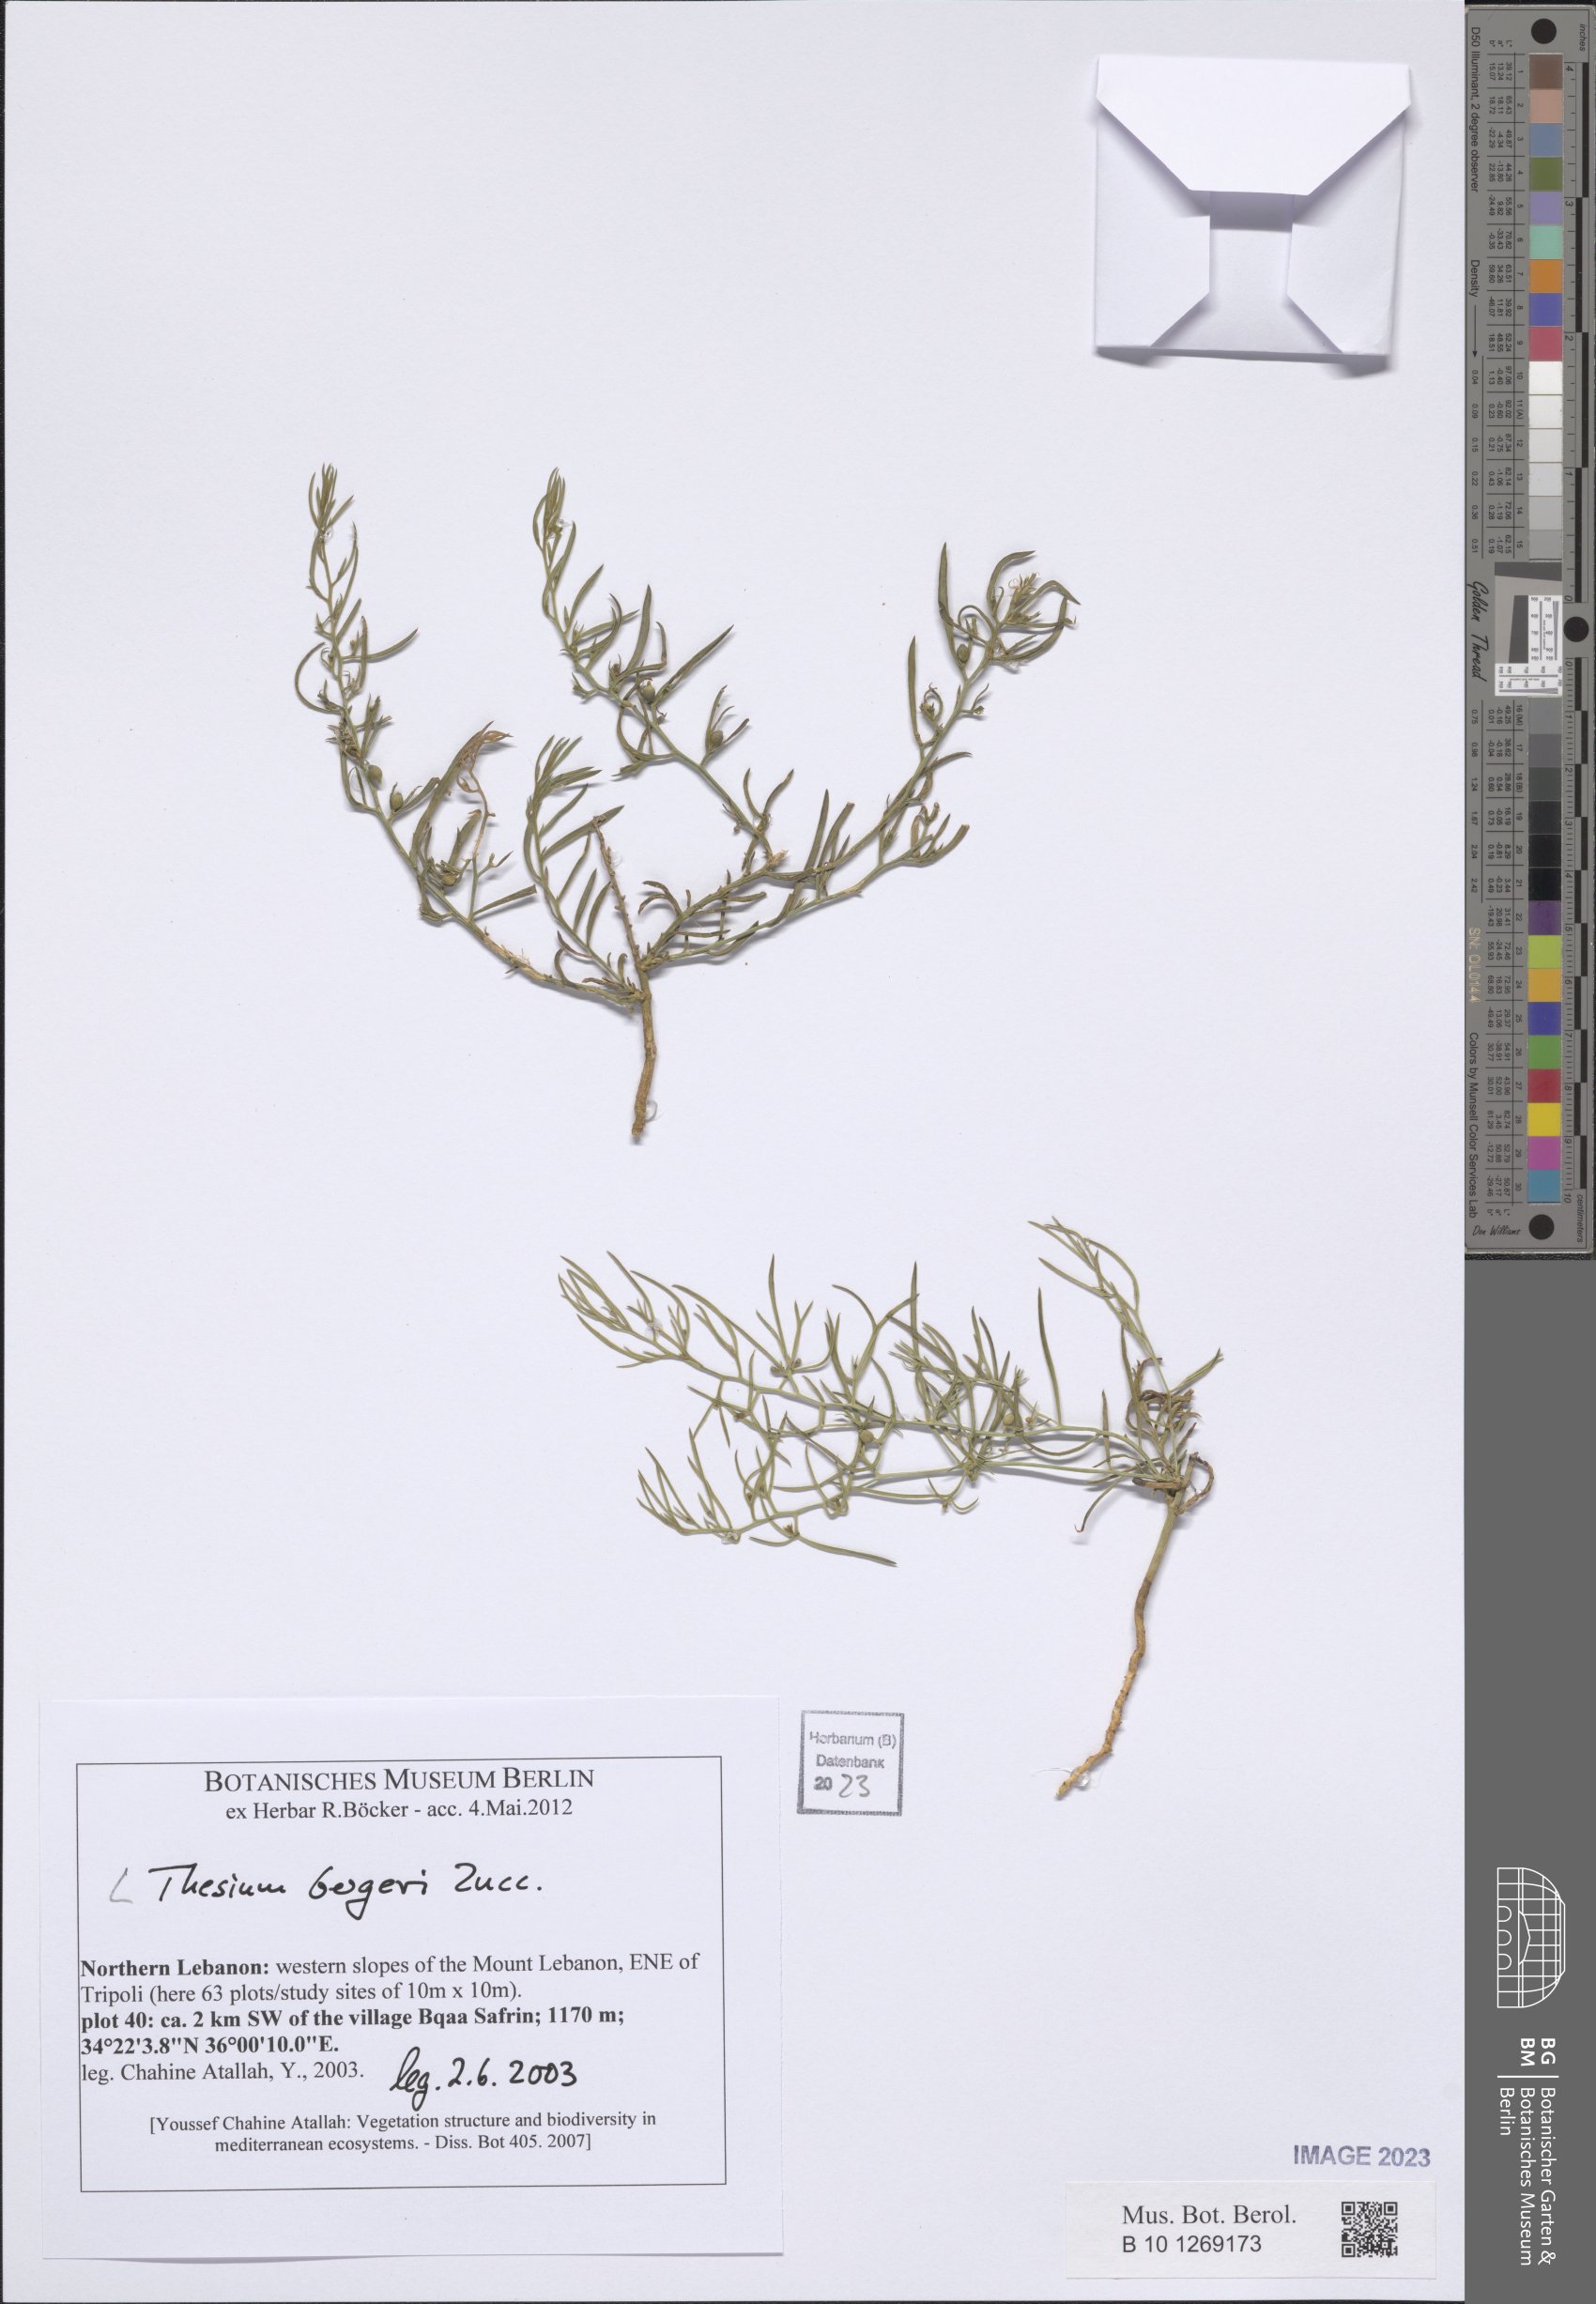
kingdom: Plantae
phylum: Tracheophyta
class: Magnoliopsida
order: Santalales
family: Thesiaceae
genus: Thesium
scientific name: Thesium bergeri
